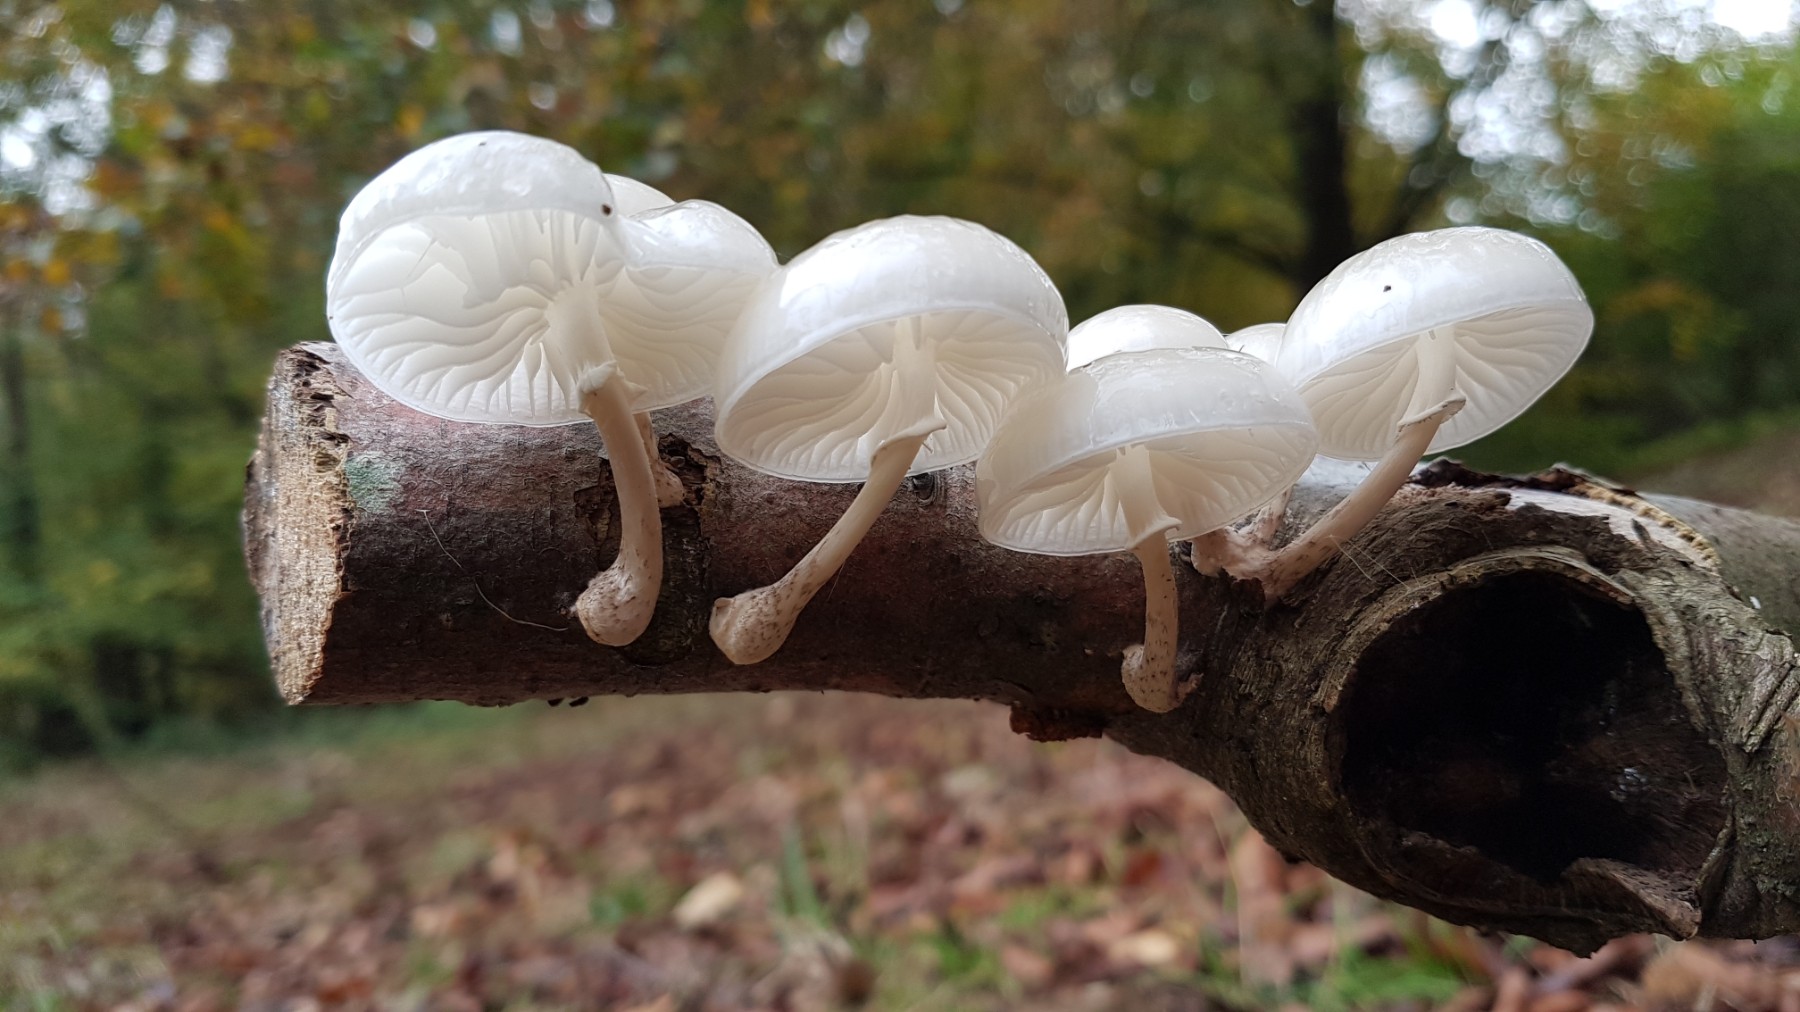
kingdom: Fungi
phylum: Basidiomycota
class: Agaricomycetes
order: Agaricales
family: Physalacriaceae
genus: Mucidula
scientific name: Mucidula
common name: porcelænshat
